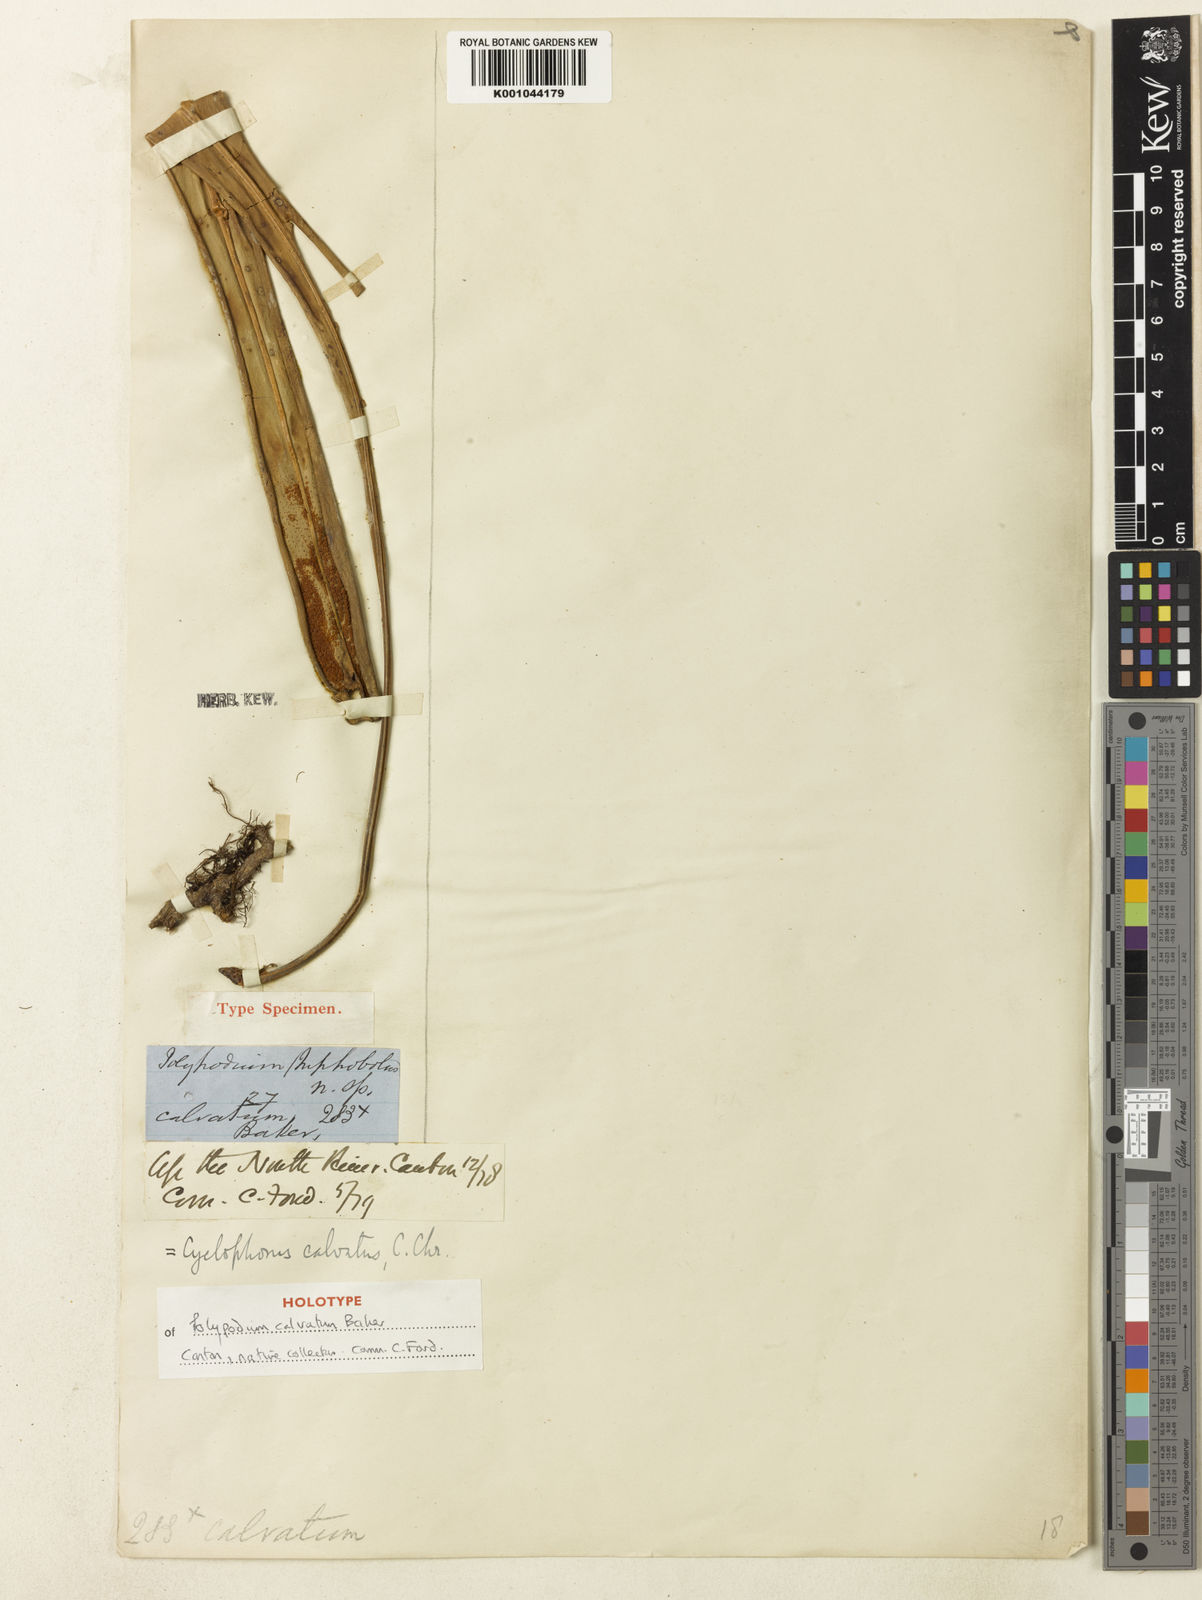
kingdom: Plantae
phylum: Tracheophyta
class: Polypodiopsida
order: Polypodiales
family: Polypodiaceae
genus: Pyrrosia
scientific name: Pyrrosia subfurfuracea
